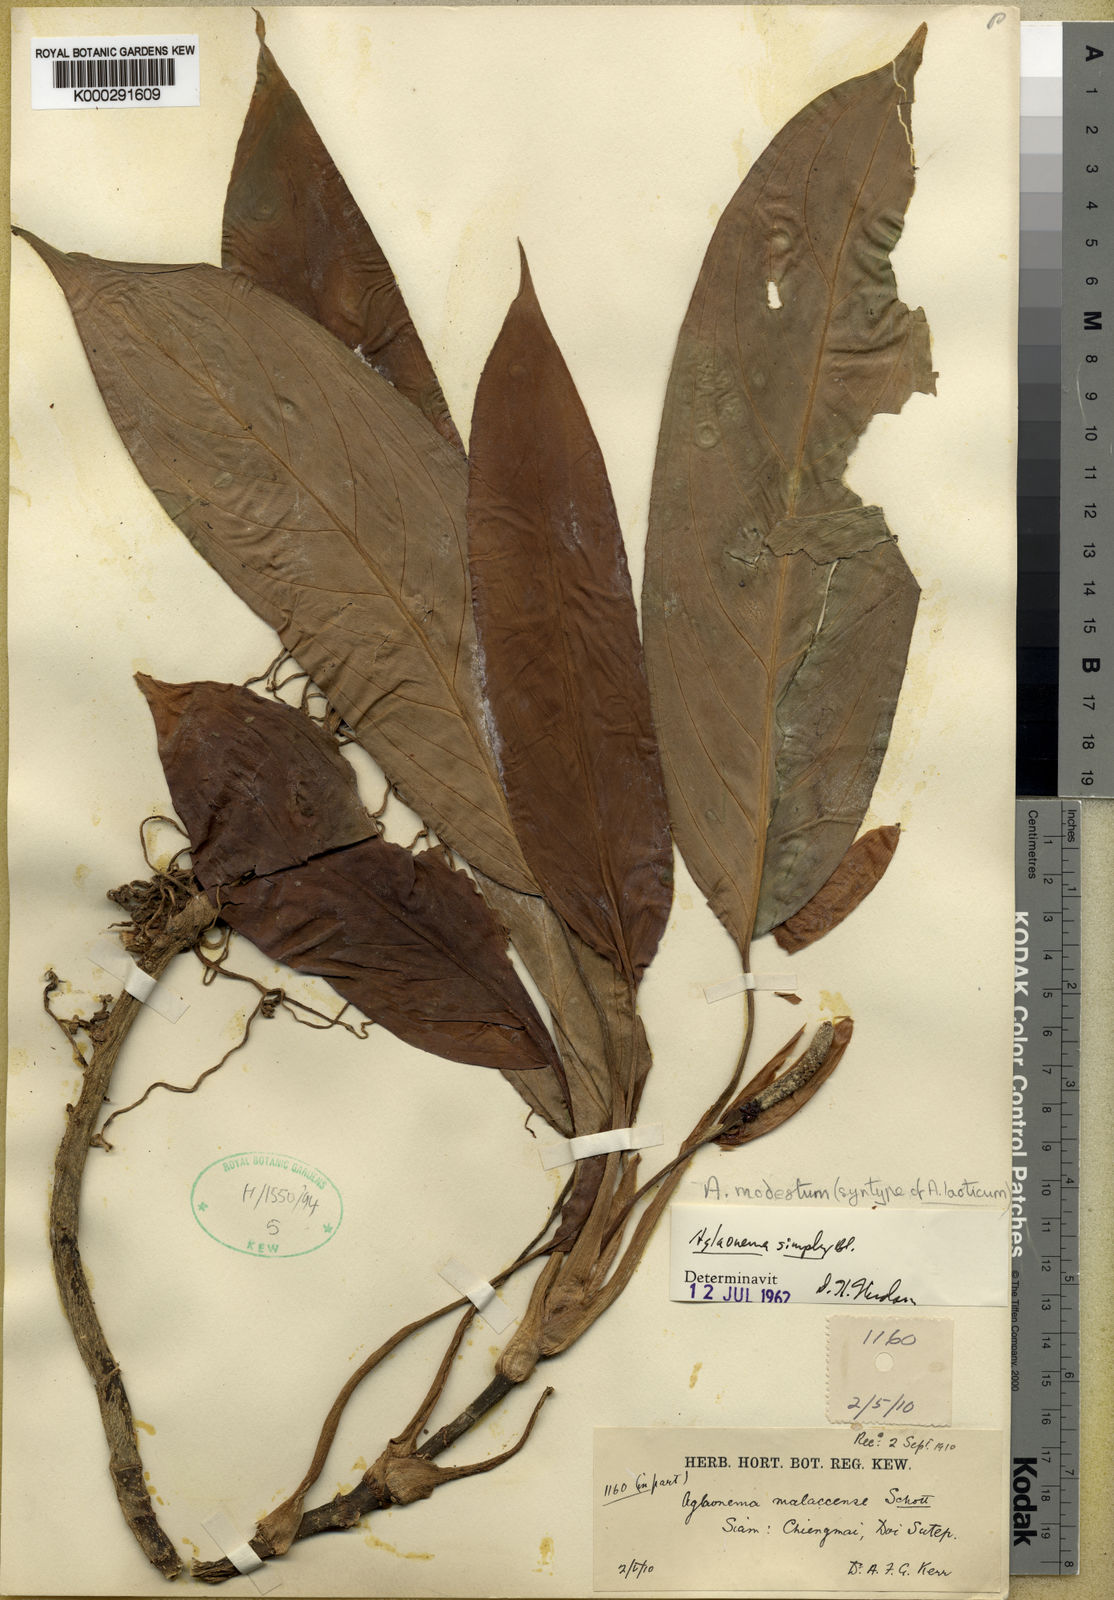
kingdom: Plantae
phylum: Tracheophyta
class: Liliopsida
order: Alismatales
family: Araceae
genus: Aglaonema
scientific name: Aglaonema modestum
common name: Chinese evergreen
